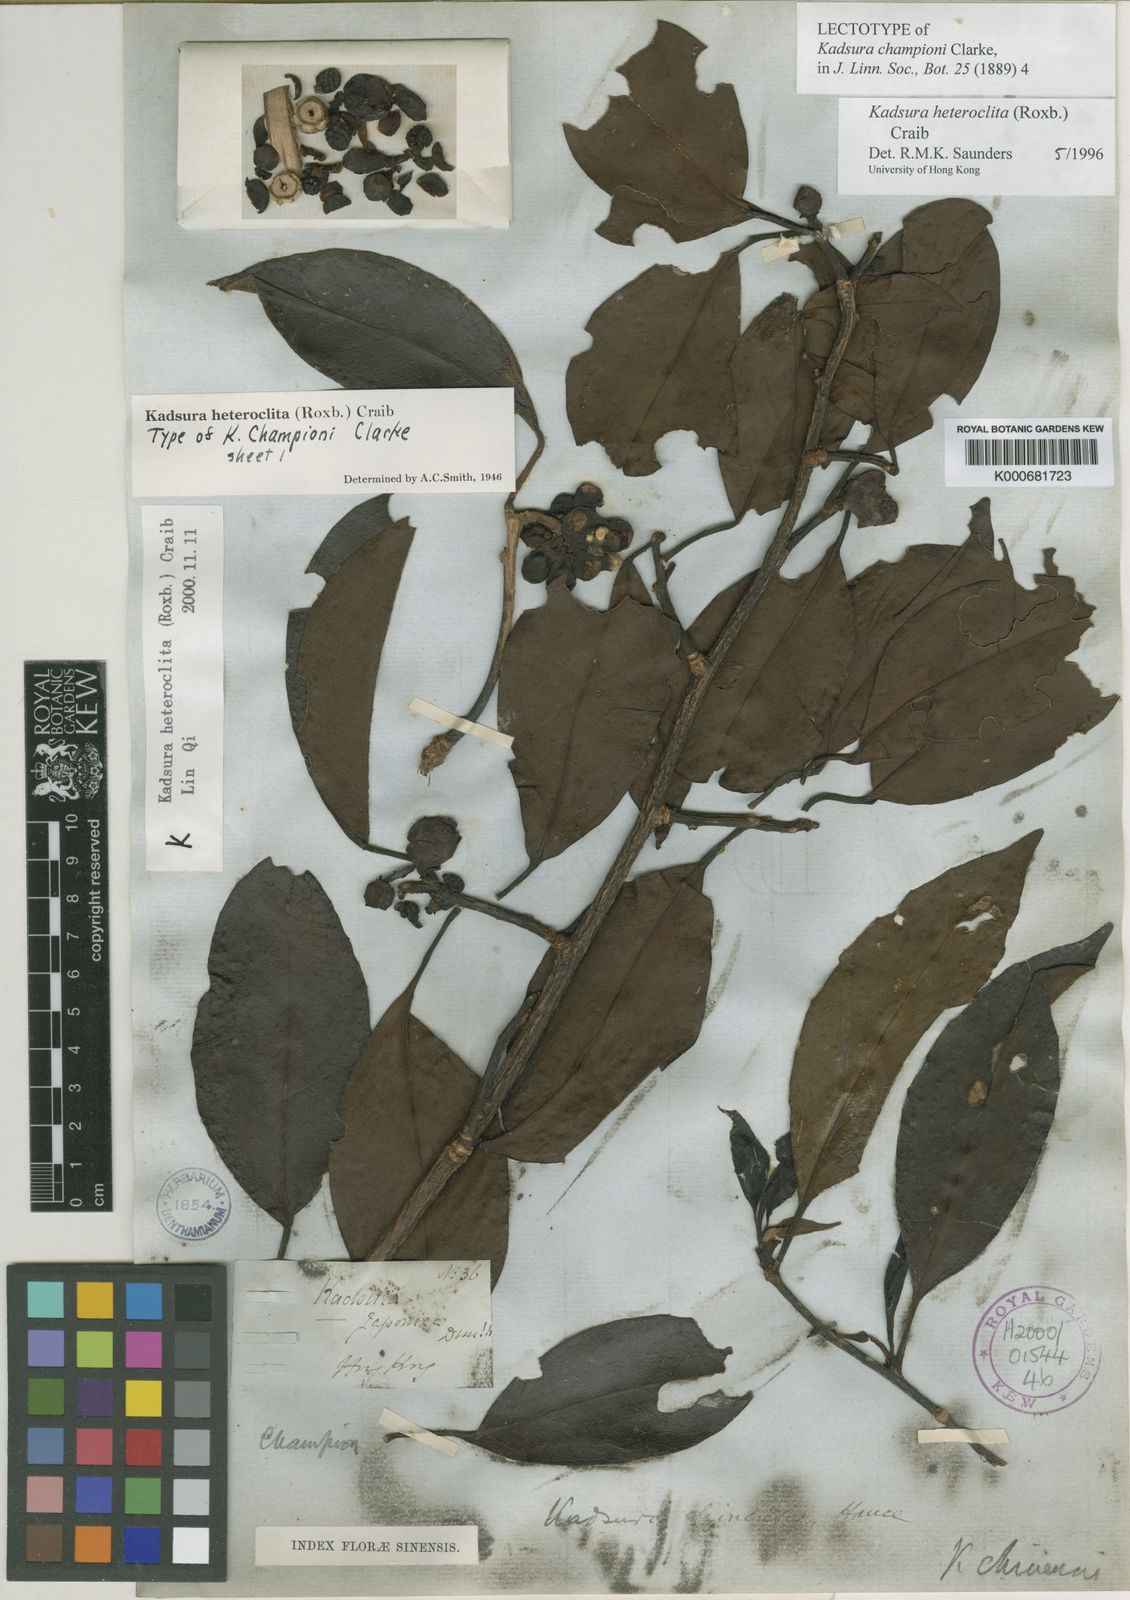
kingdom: Plantae
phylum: Tracheophyta
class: Magnoliopsida
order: Austrobaileyales
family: Schisandraceae
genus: Kadsura
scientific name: Kadsura heteroclita
